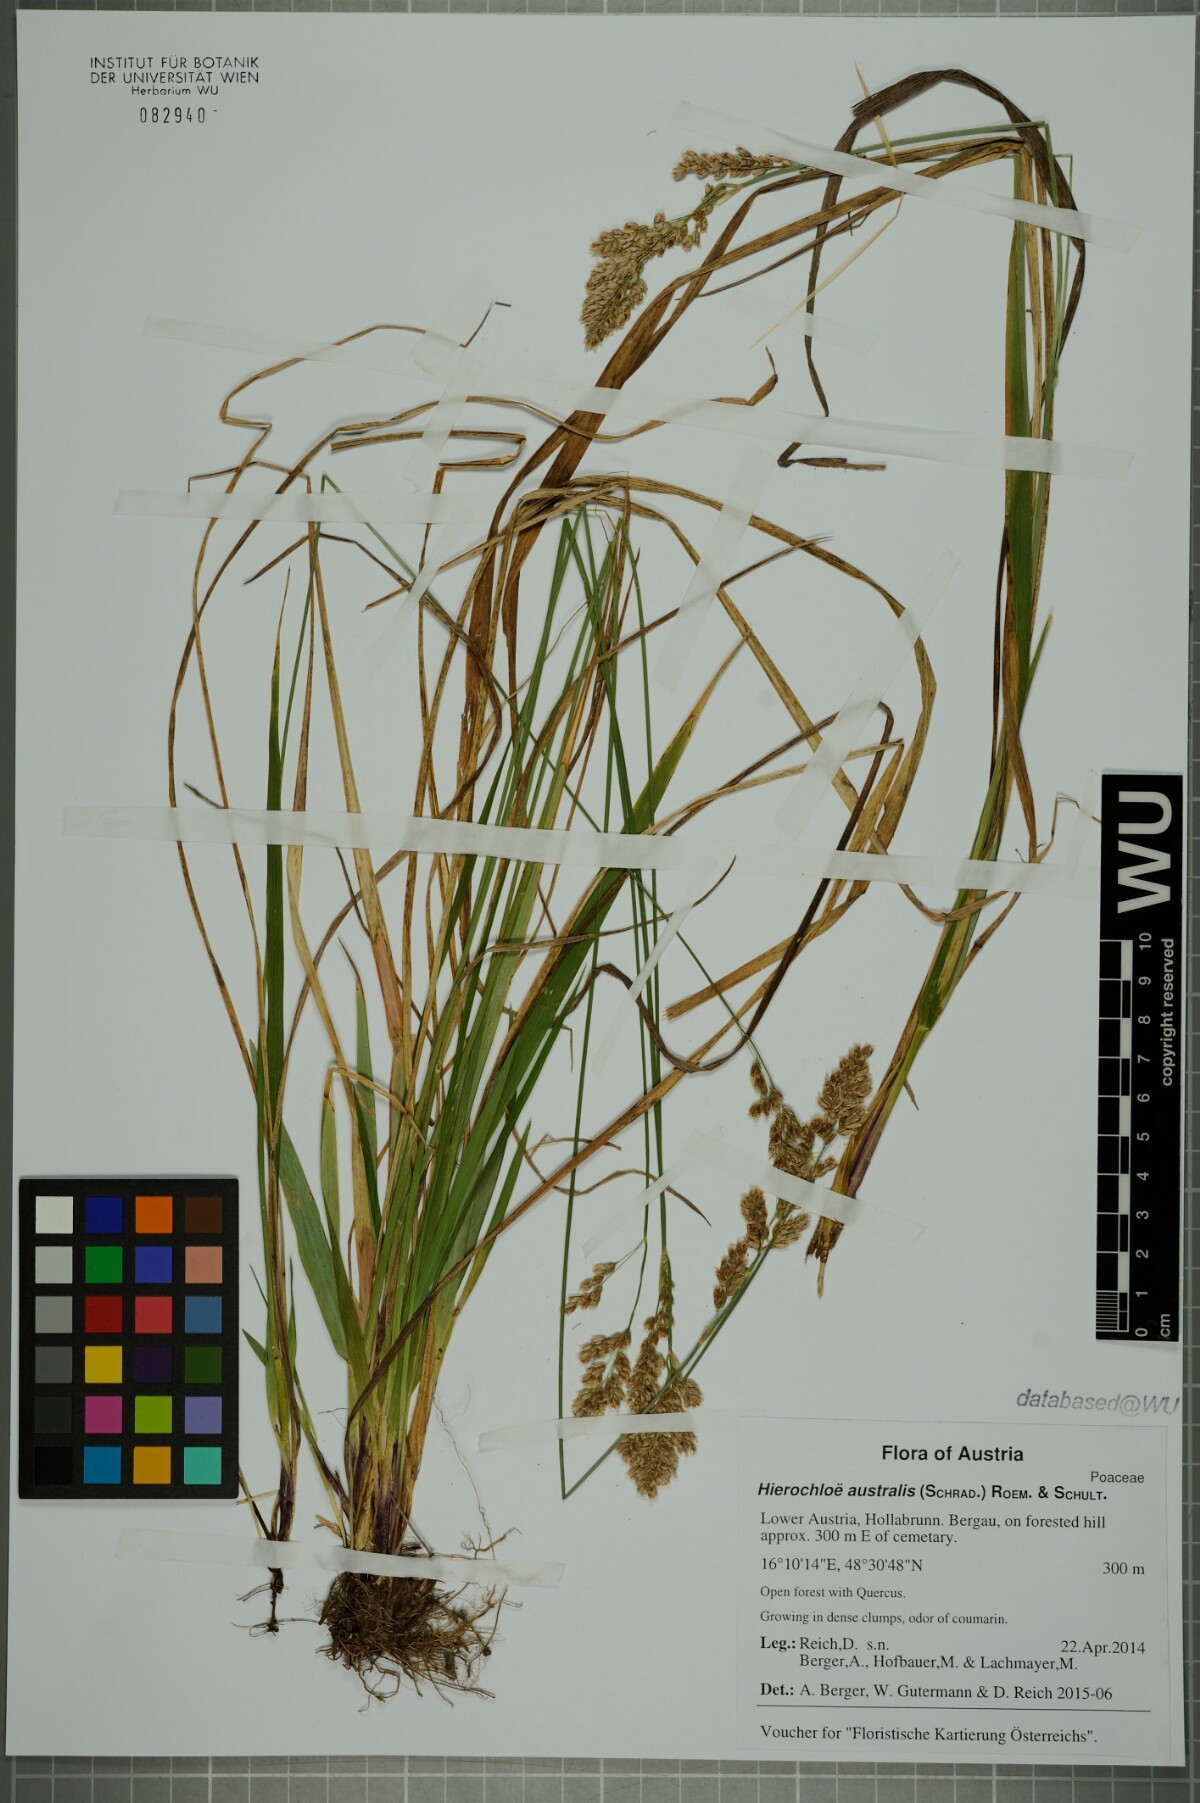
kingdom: Plantae
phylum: Tracheophyta
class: Liliopsida
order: Poales
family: Poaceae
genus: Anthoxanthum
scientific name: Anthoxanthum australe
